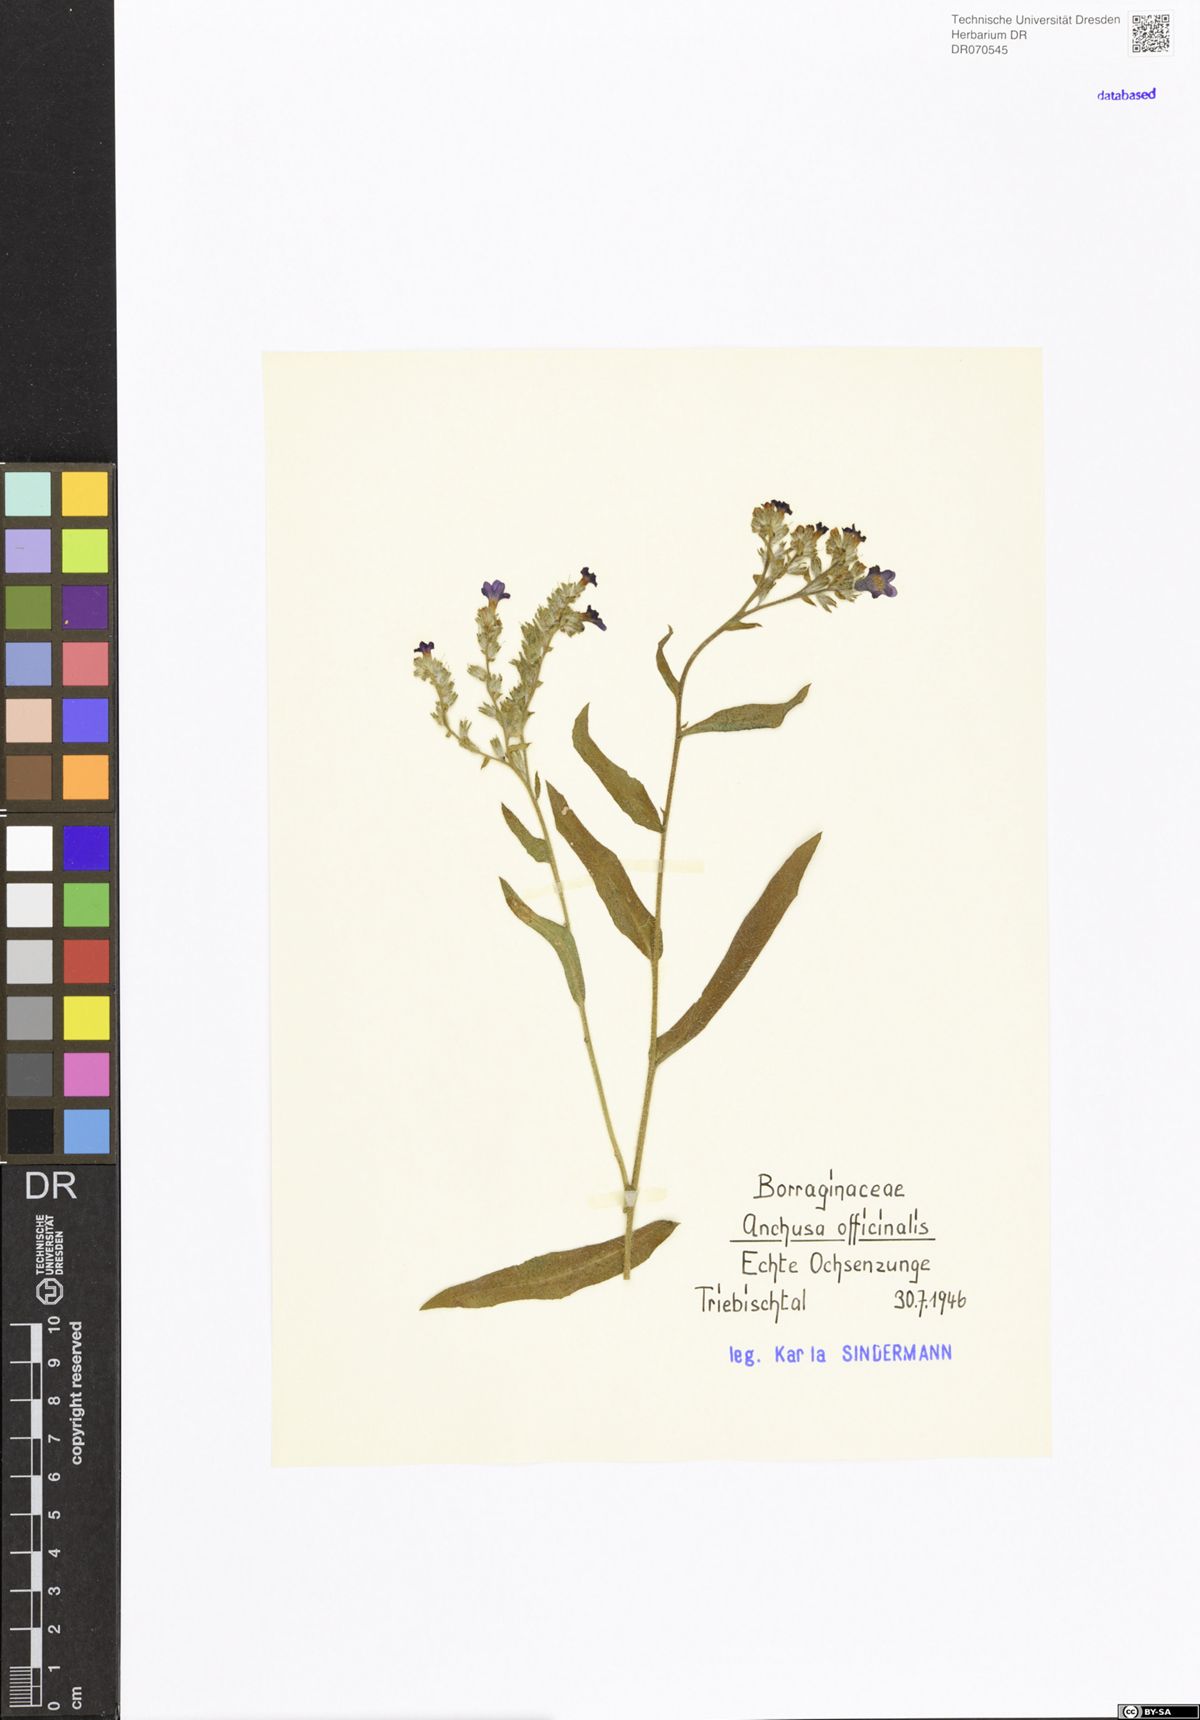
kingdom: Plantae
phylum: Tracheophyta
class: Magnoliopsida
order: Boraginales
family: Boraginaceae
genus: Anchusa
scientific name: Anchusa officinalis
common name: Alkanet
